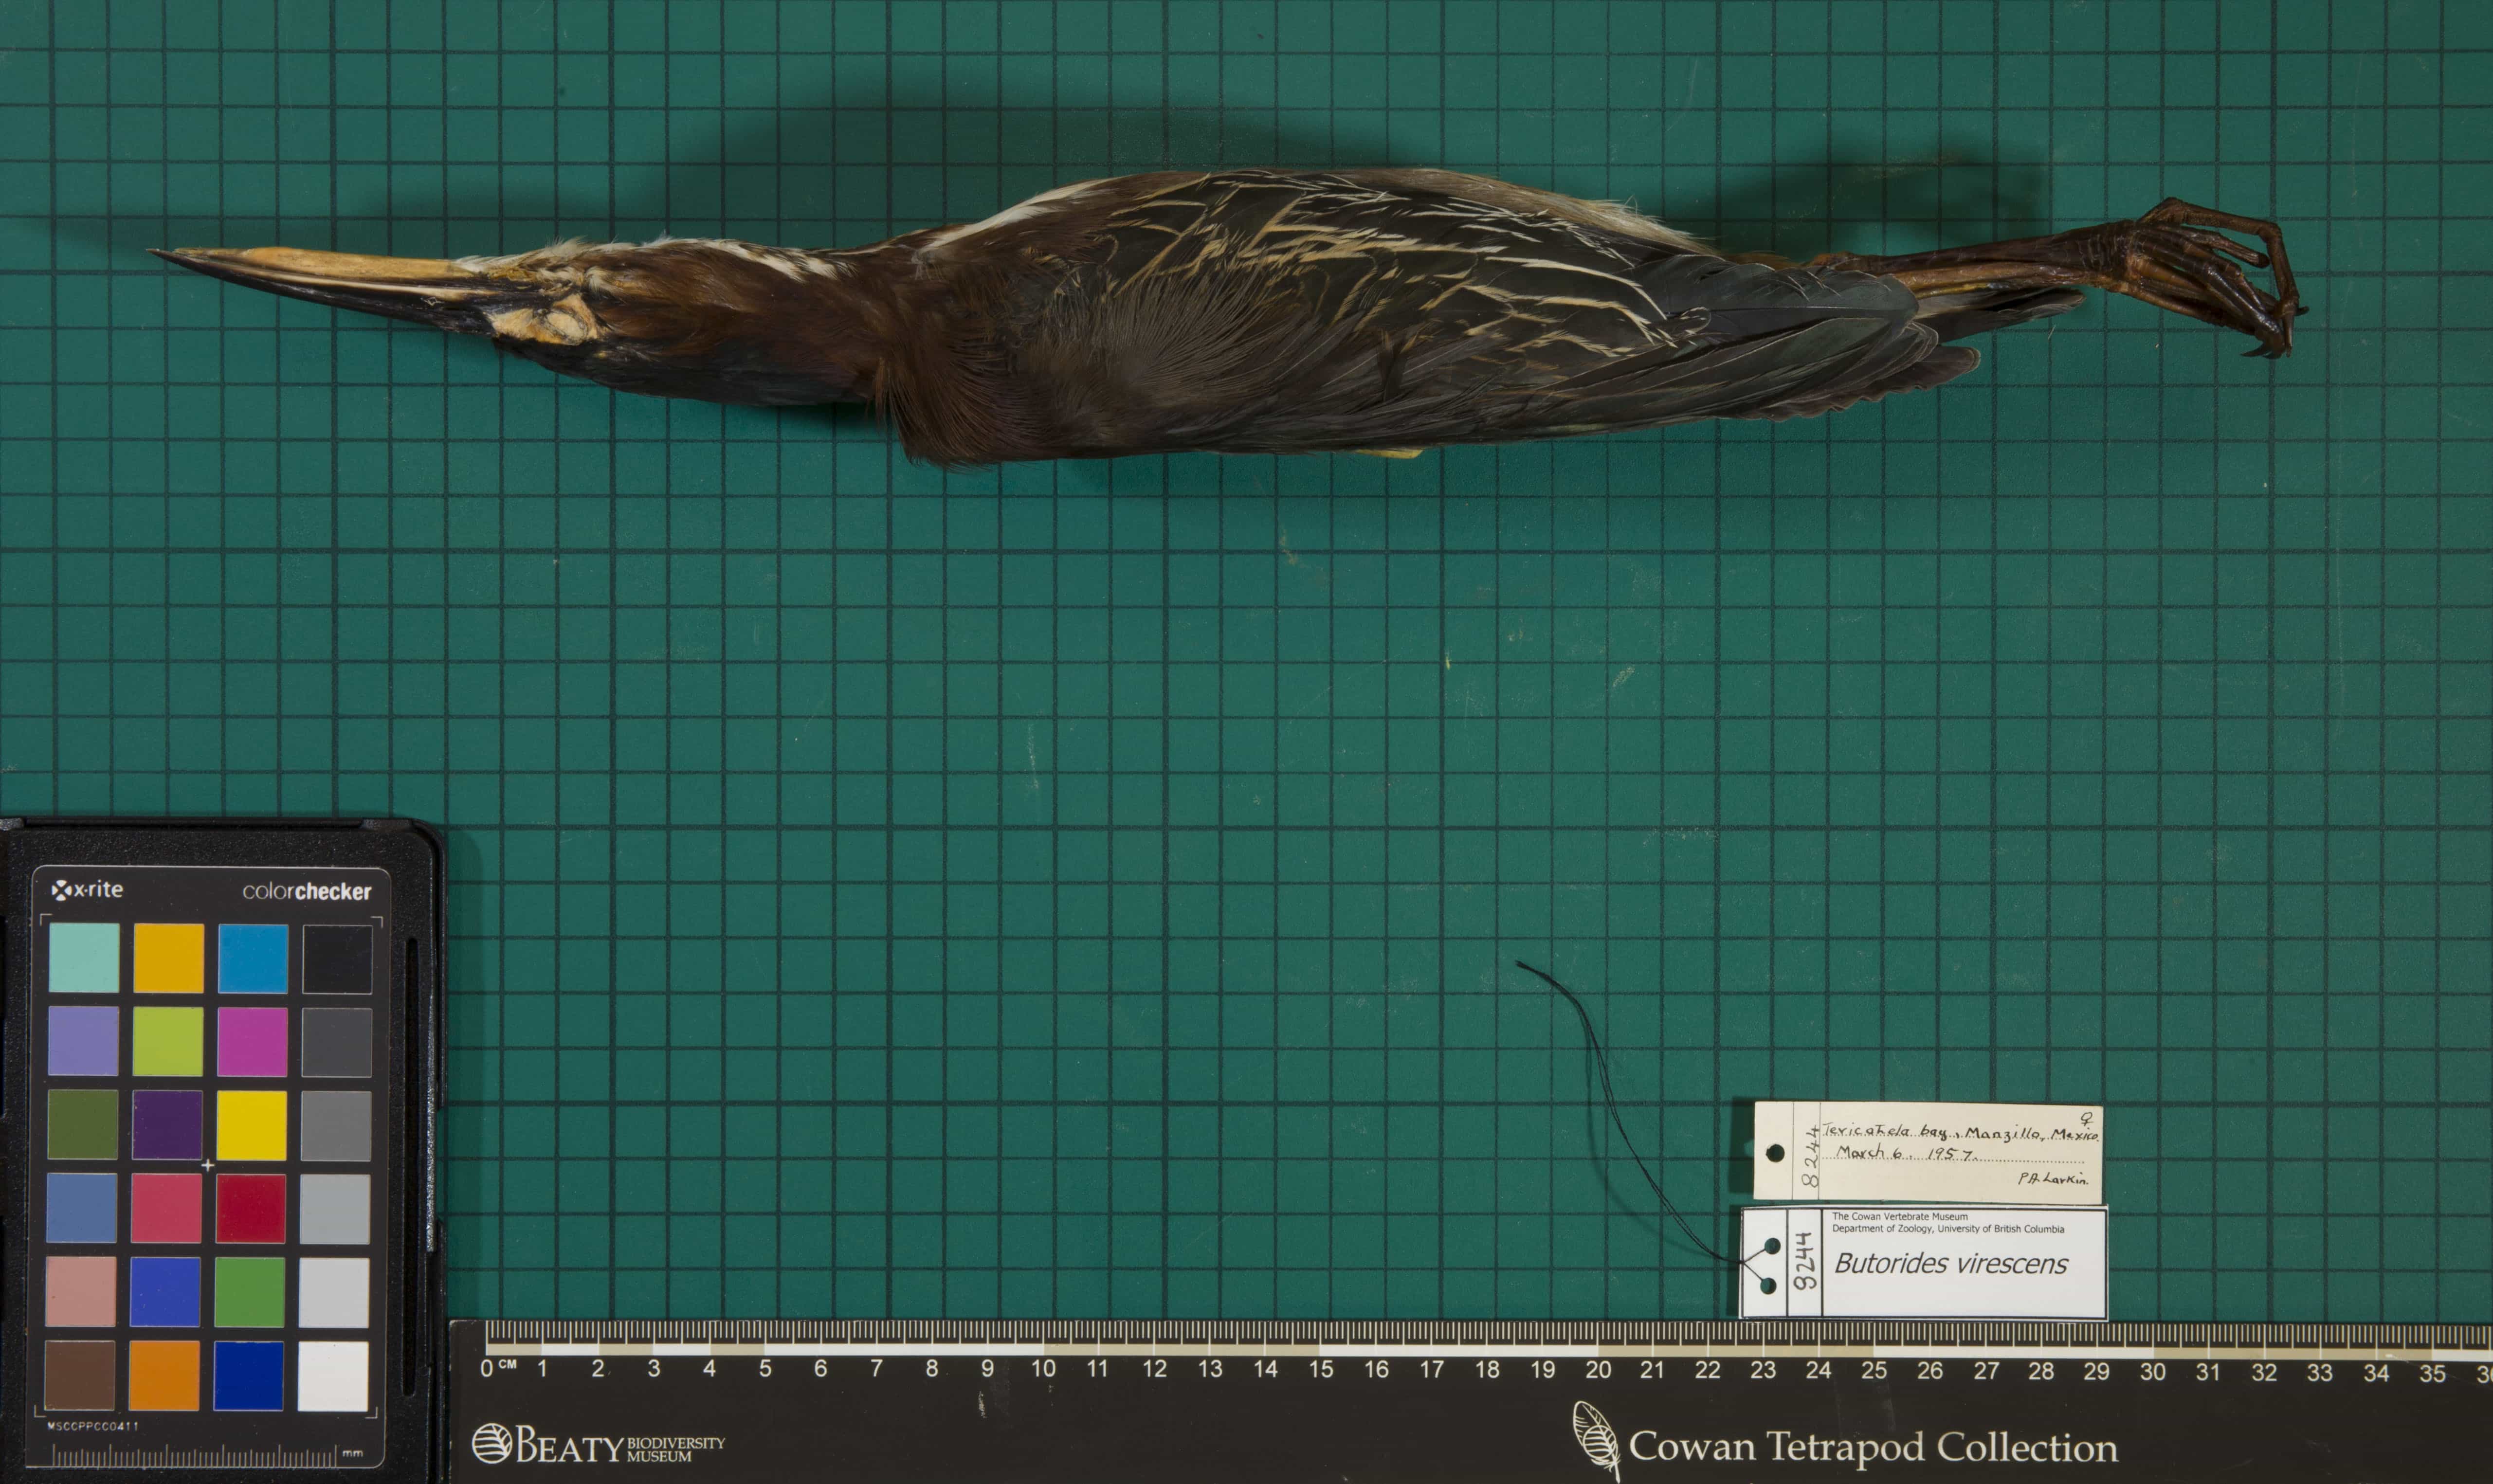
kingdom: Animalia
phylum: Chordata
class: Aves
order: Pelecaniformes
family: Ardeidae
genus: Butorides
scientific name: Butorides virescens
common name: Green Heron
